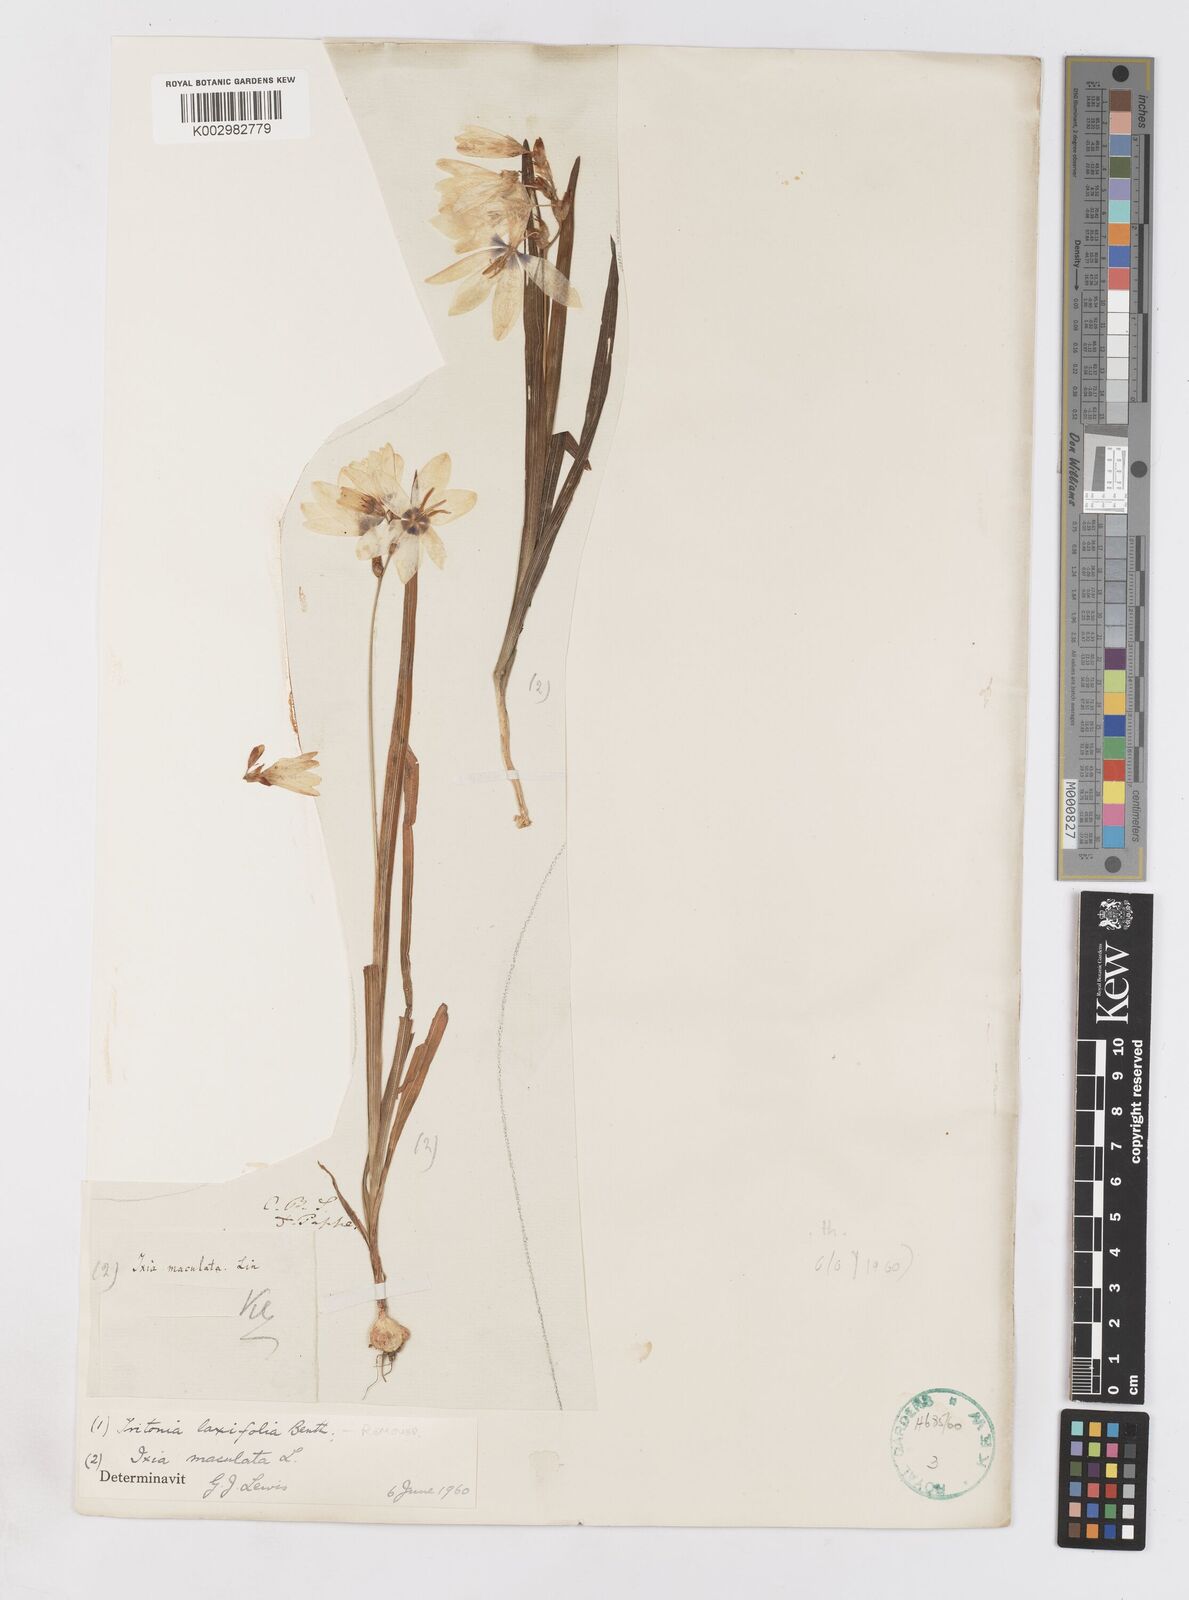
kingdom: Plantae
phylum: Tracheophyta
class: Liliopsida
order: Asparagales
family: Iridaceae
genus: Ixia
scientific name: Ixia maculata
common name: Spotted african cornlily
